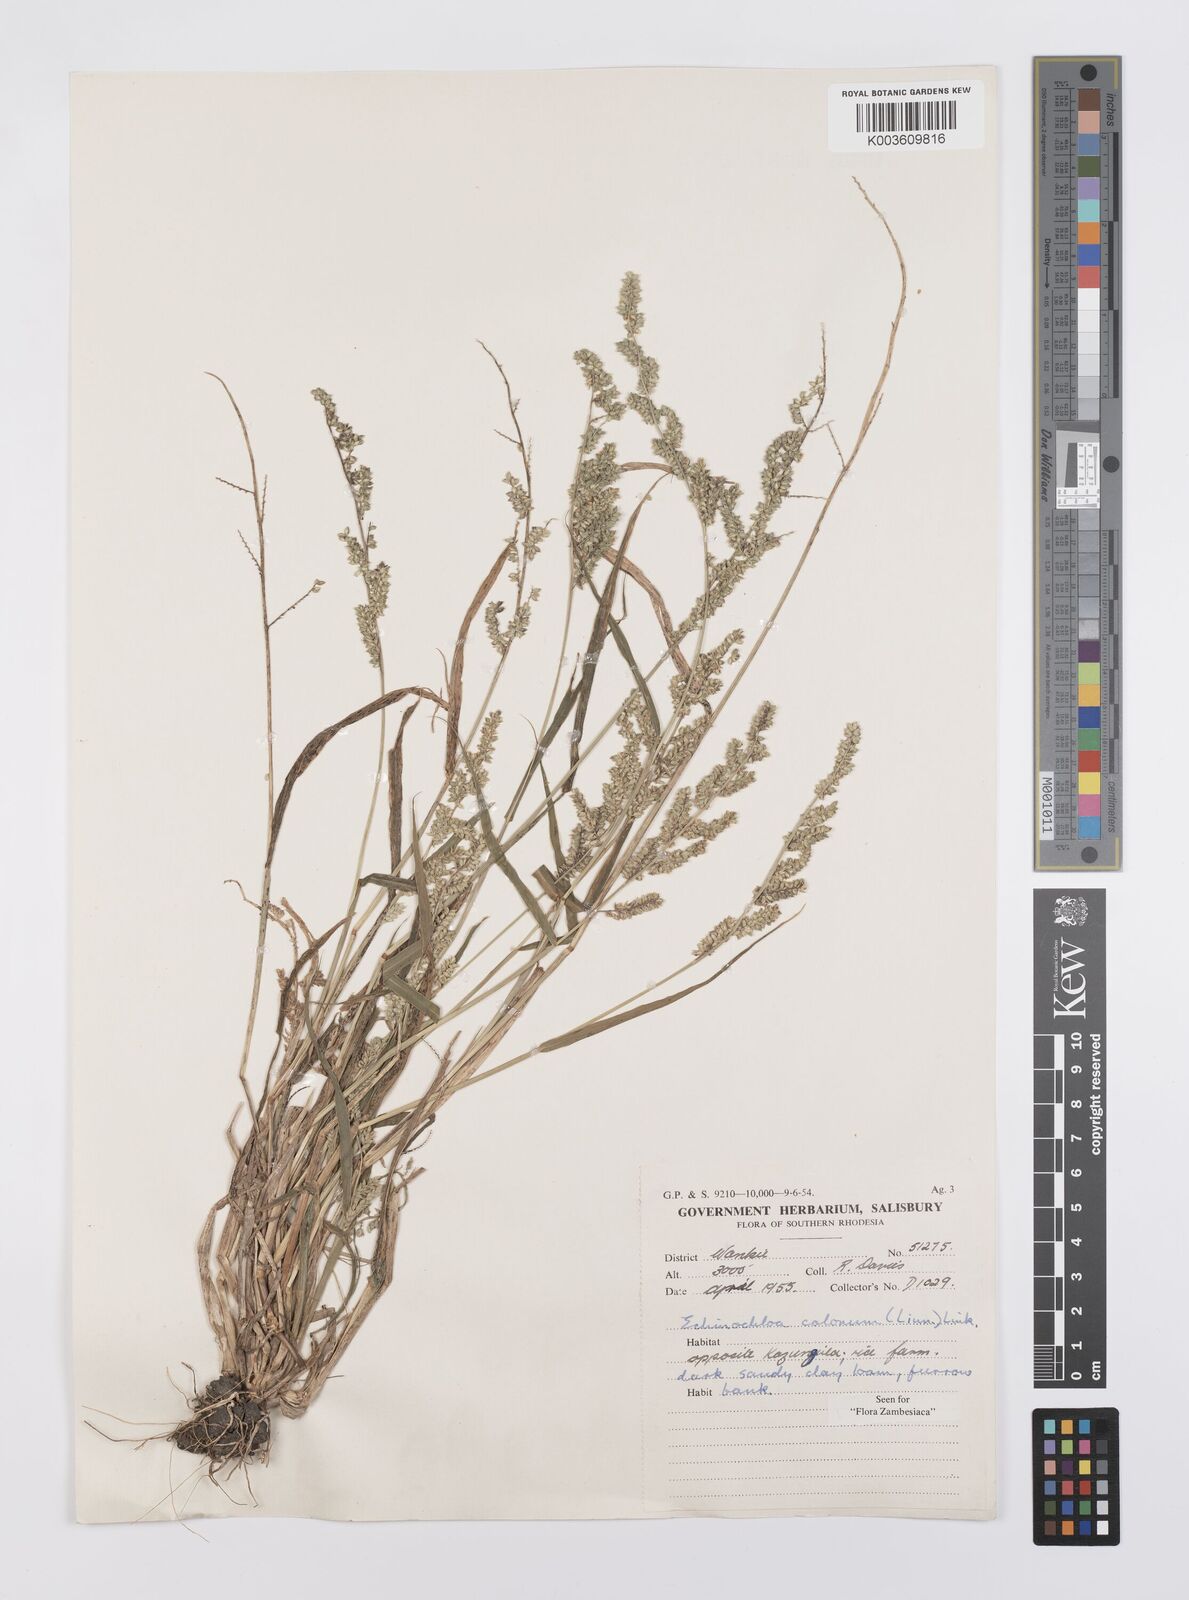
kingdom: Plantae
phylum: Tracheophyta
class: Liliopsida
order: Poales
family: Poaceae
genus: Echinochloa
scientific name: Echinochloa colonum
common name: Jungle rice
